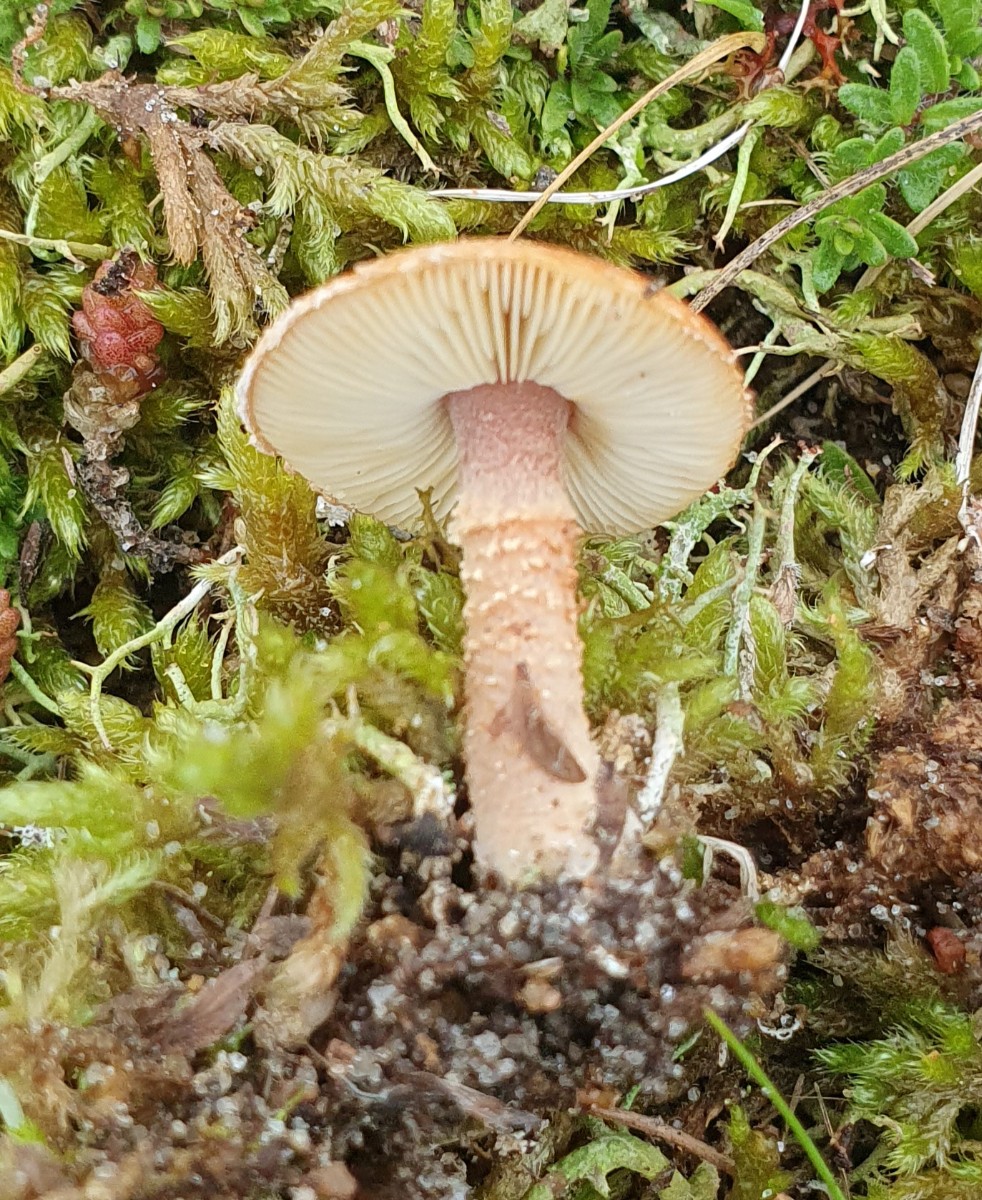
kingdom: Fungi
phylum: Basidiomycota
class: Agaricomycetes
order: Agaricales
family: Agaricaceae
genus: Cystodermella
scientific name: Cystodermella granulosa
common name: kliddet grynhat
